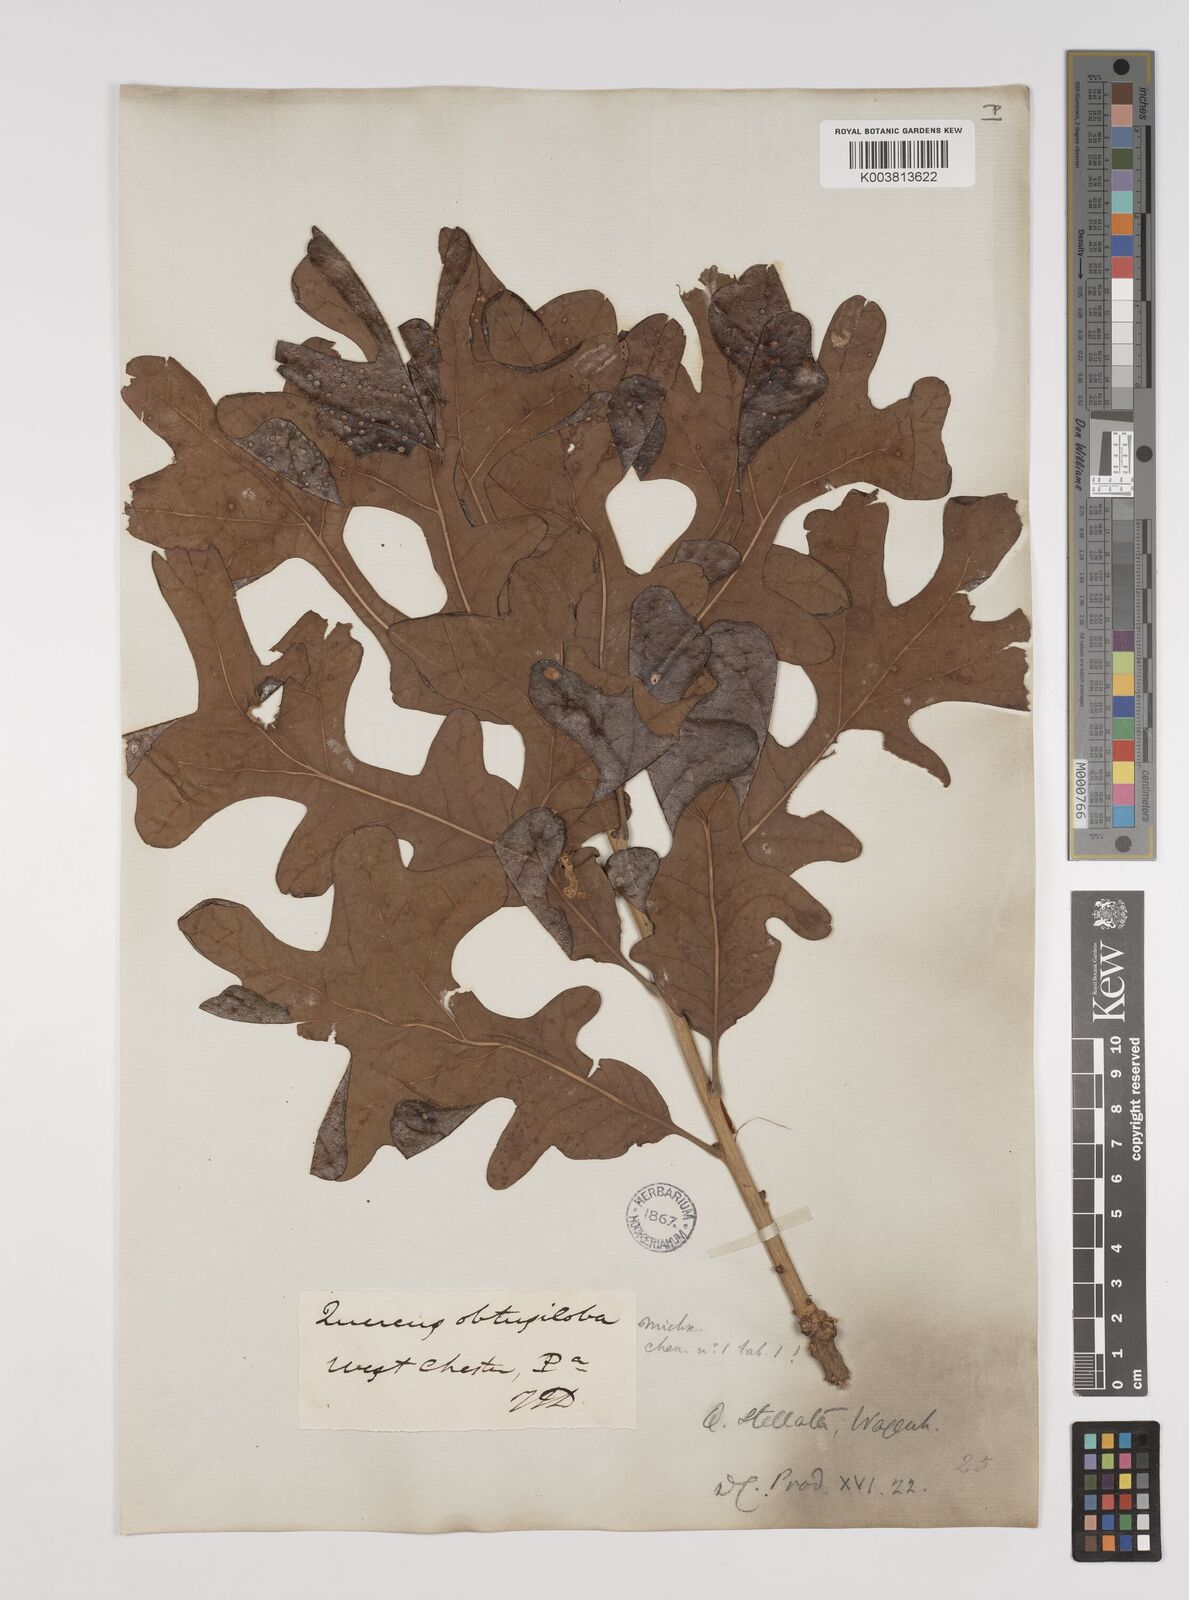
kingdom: Plantae
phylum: Tracheophyta
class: Magnoliopsida
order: Fagales
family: Fagaceae
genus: Quercus
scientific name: Quercus stellata
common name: Post oak
